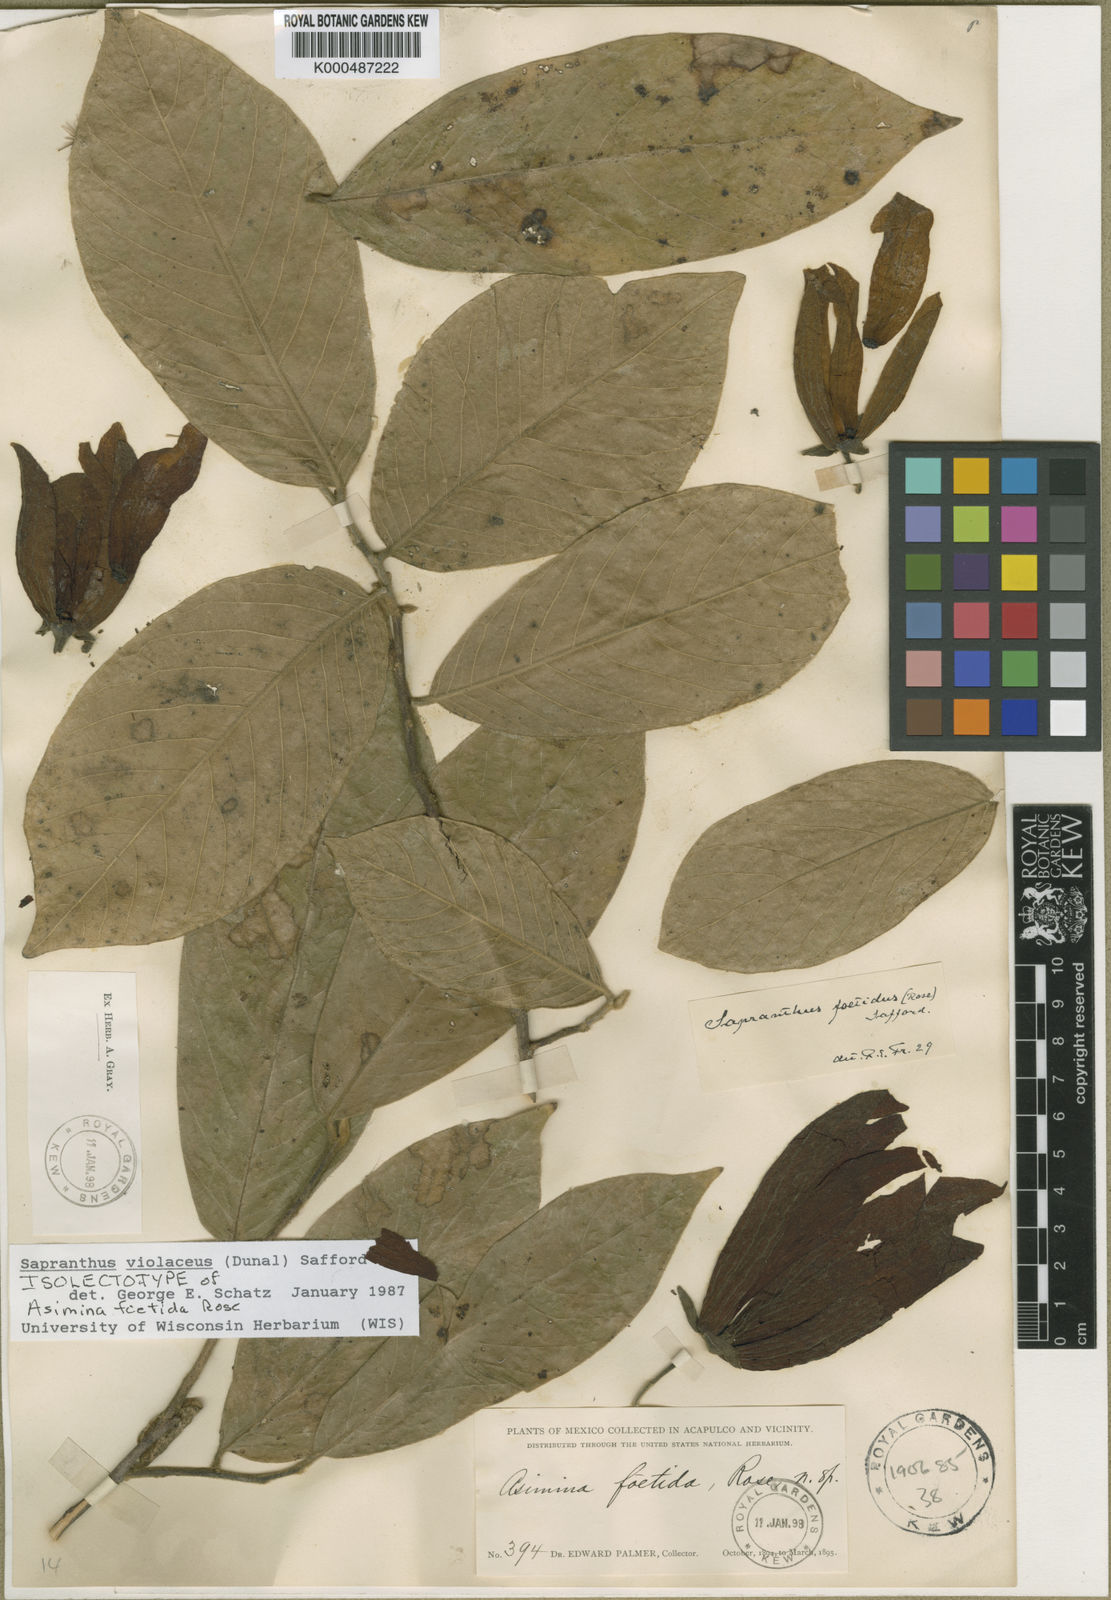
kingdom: Plantae
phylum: Tracheophyta
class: Magnoliopsida
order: Magnoliales
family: Annonaceae
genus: Sapranthus
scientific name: Sapranthus
